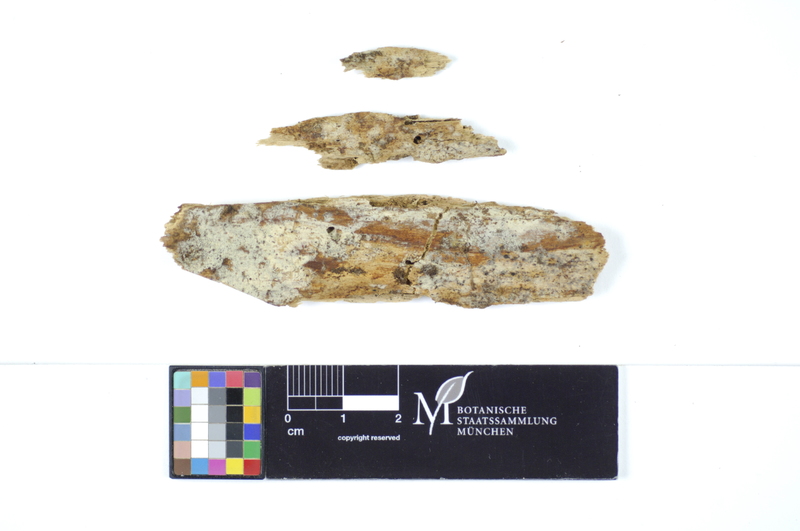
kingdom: Plantae
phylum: Tracheophyta
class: Pinopsida
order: Pinales
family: Pinaceae
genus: Picea
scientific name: Picea
